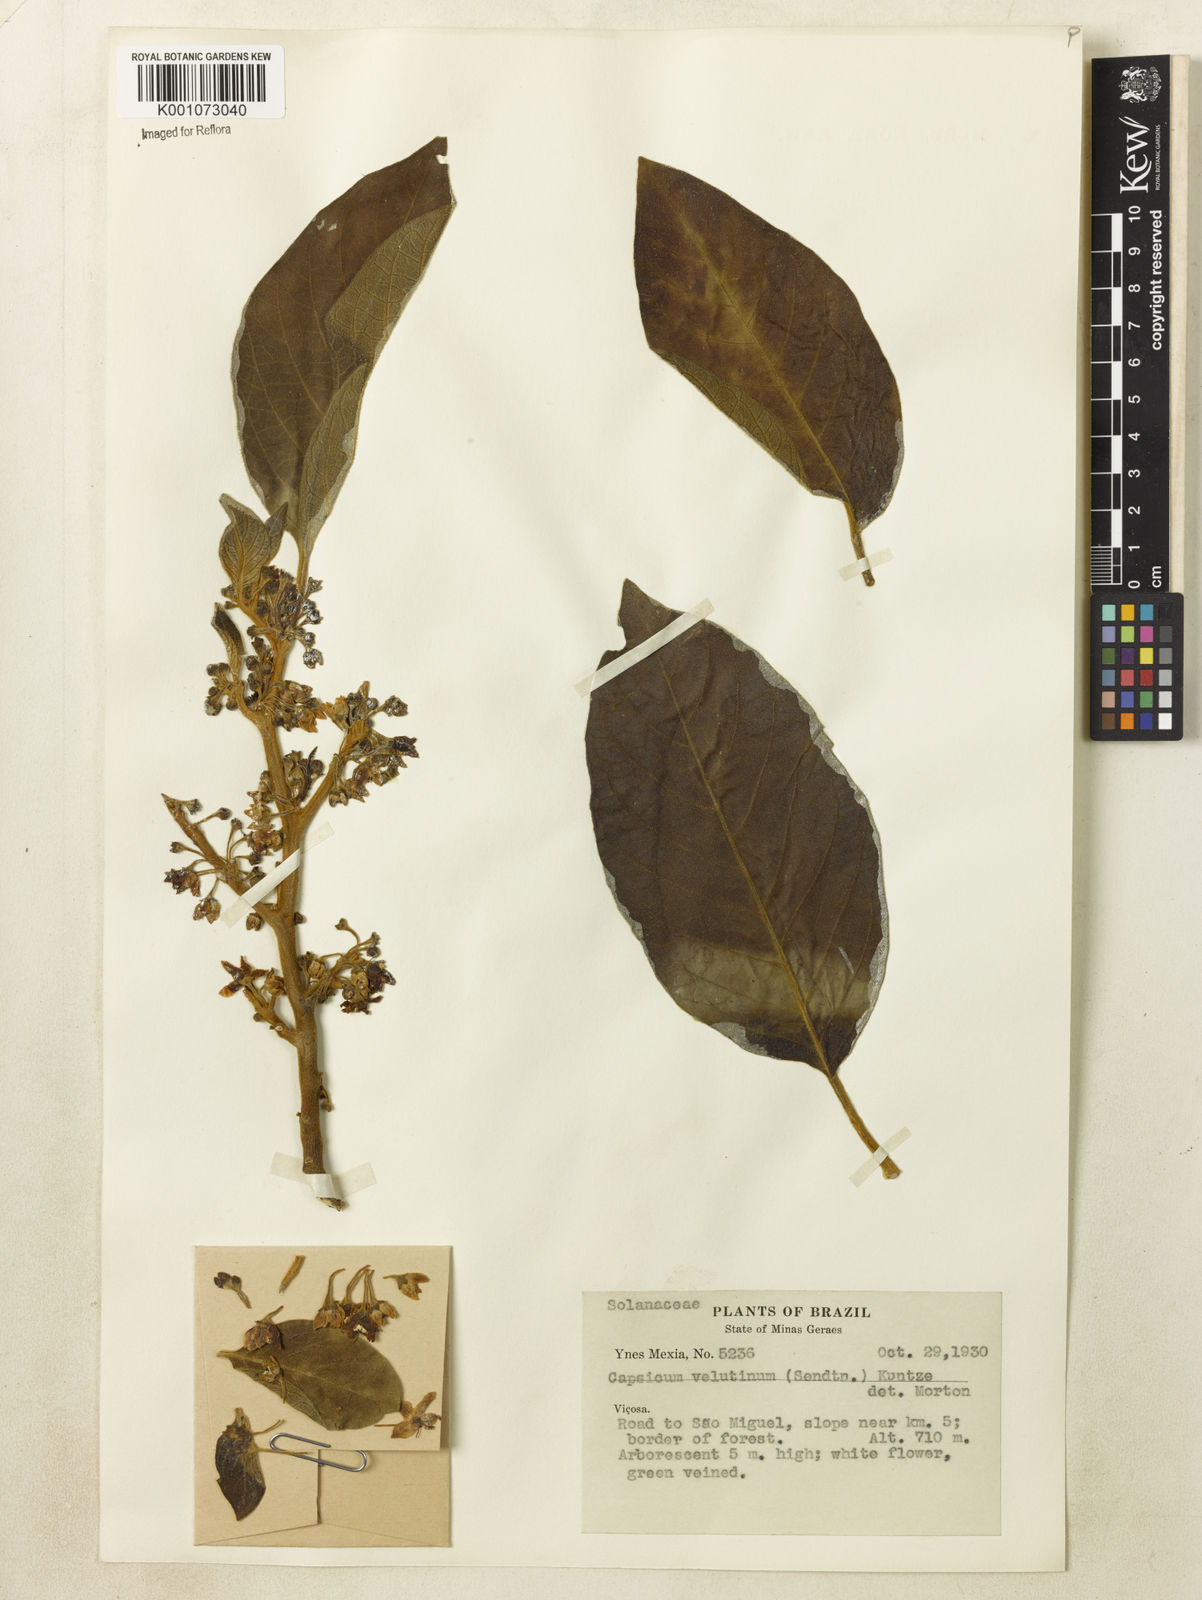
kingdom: Plantae
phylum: Tracheophyta
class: Magnoliopsida
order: Solanales
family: Solanaceae
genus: Athenaea
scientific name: Athenaea velutina
